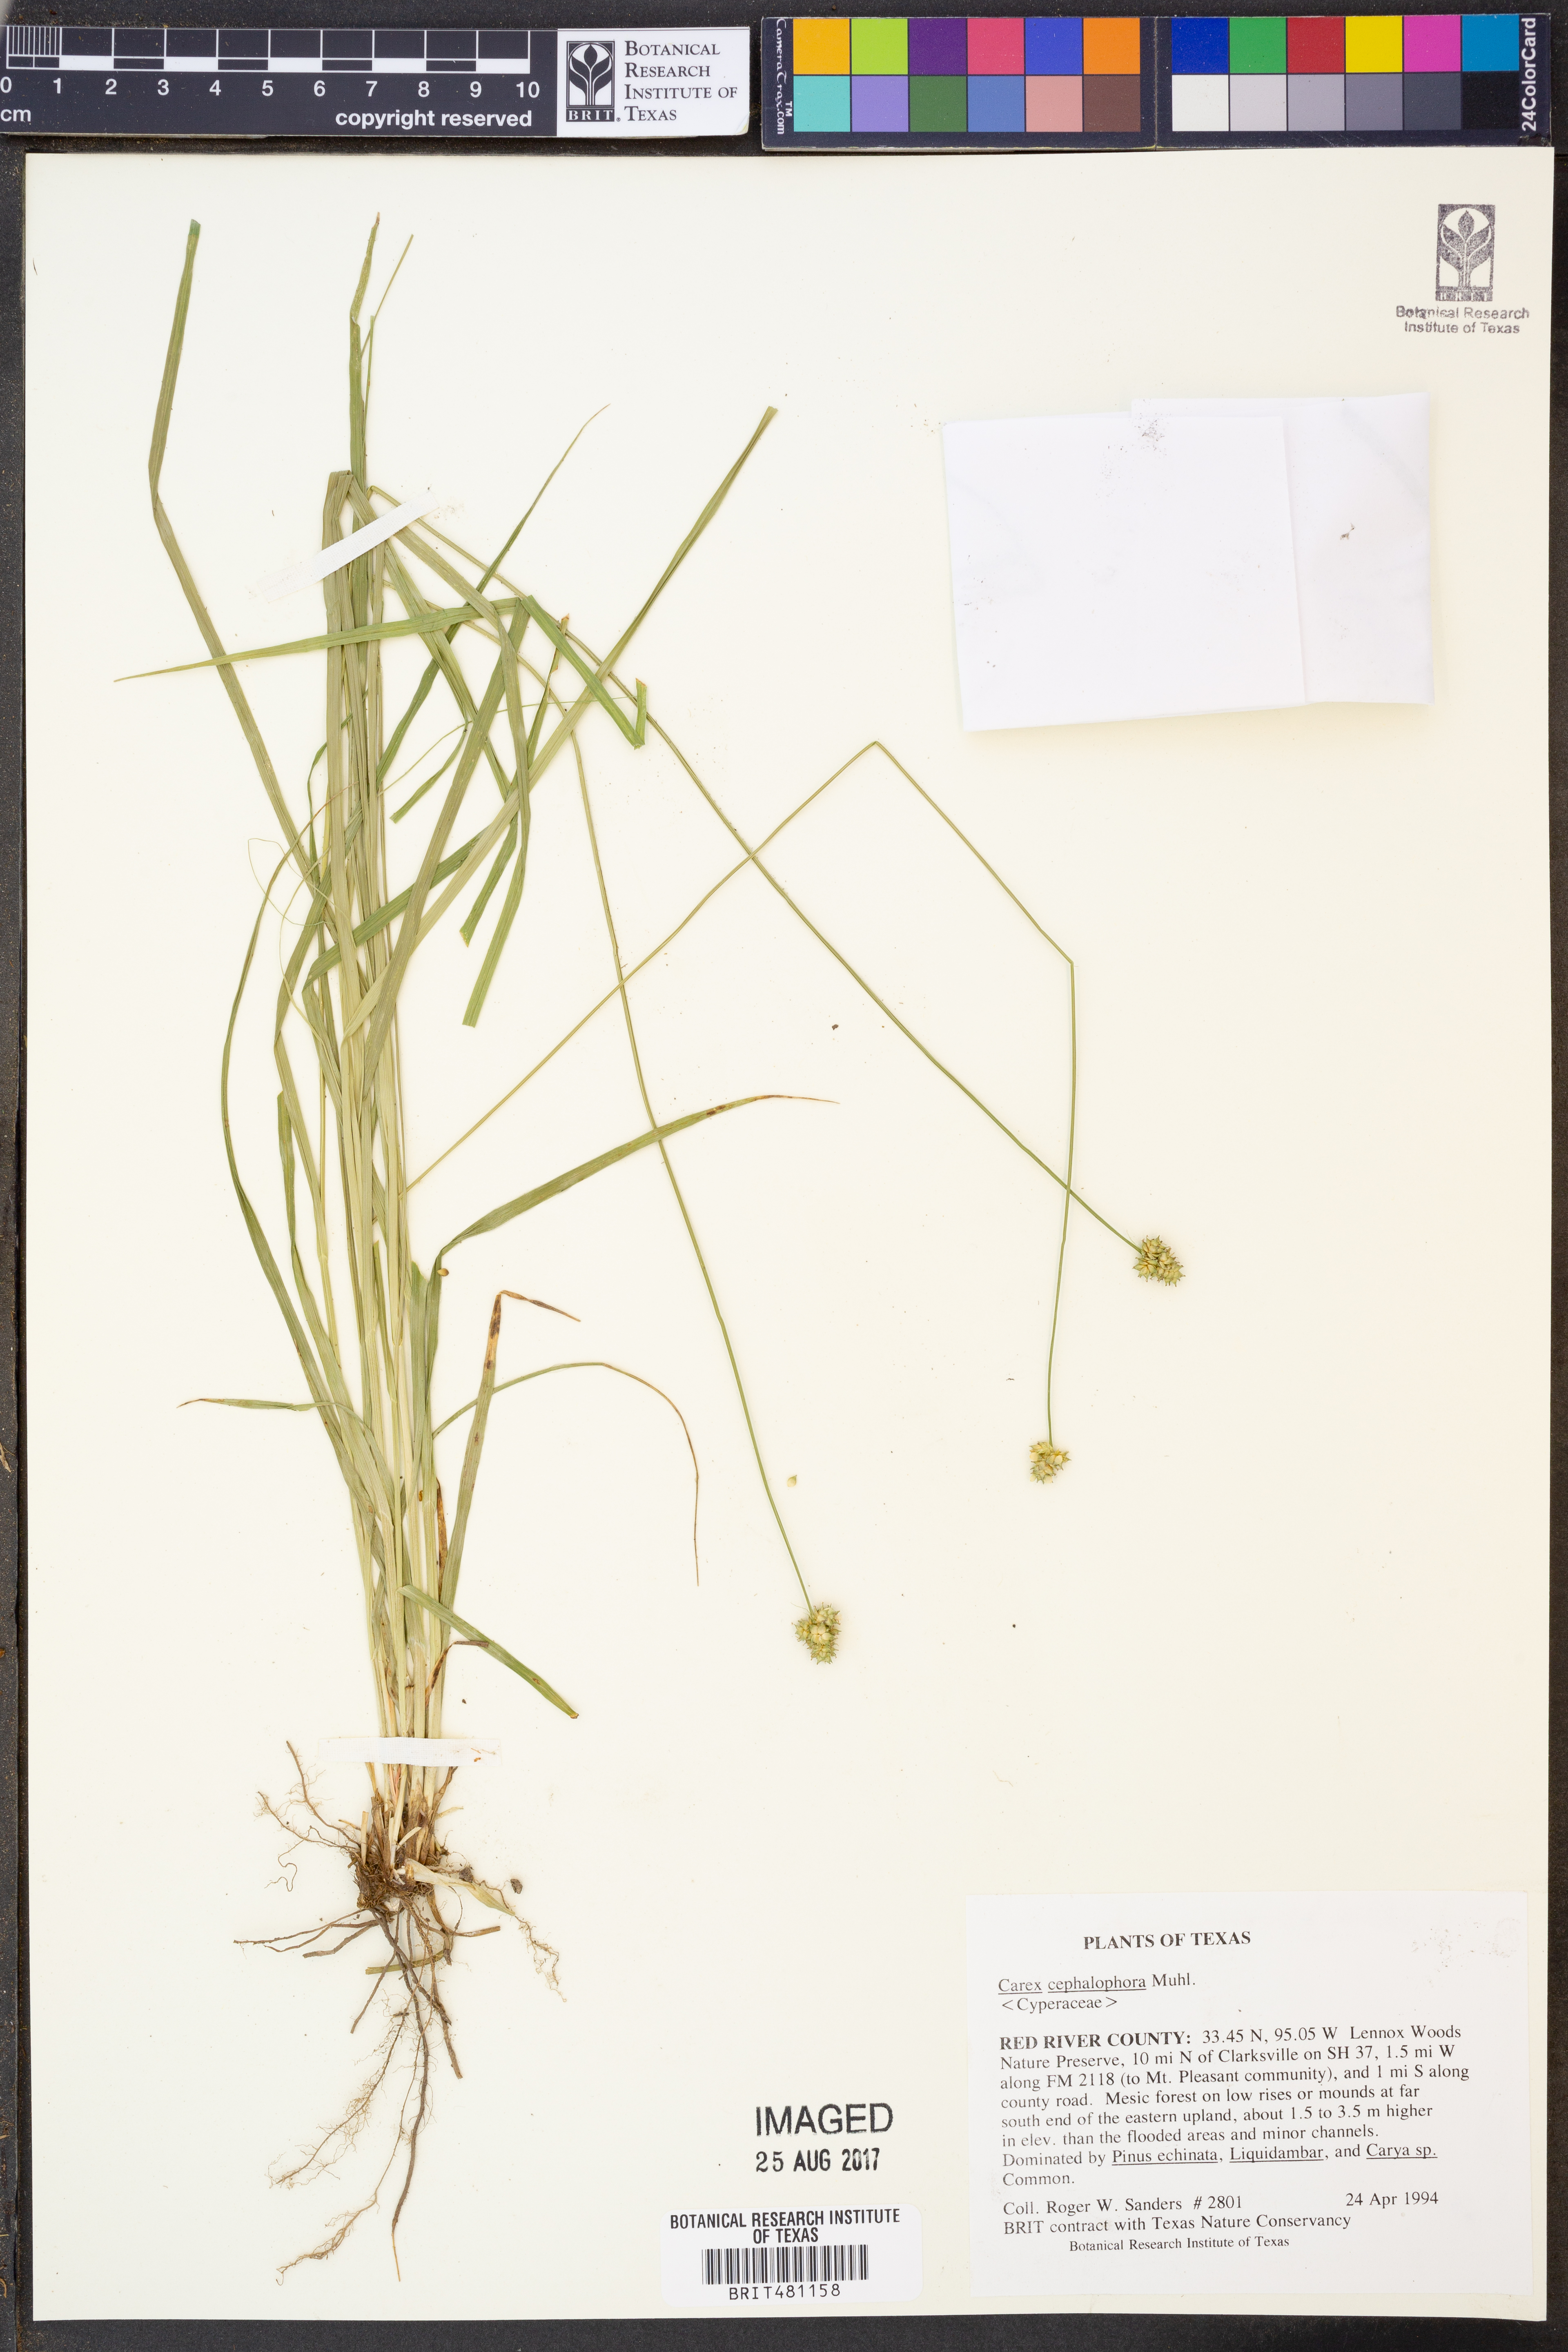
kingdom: Plantae
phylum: Tracheophyta
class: Liliopsida
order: Poales
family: Cyperaceae
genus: Carex
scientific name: Carex cephalophora
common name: Oval-headed sedge
